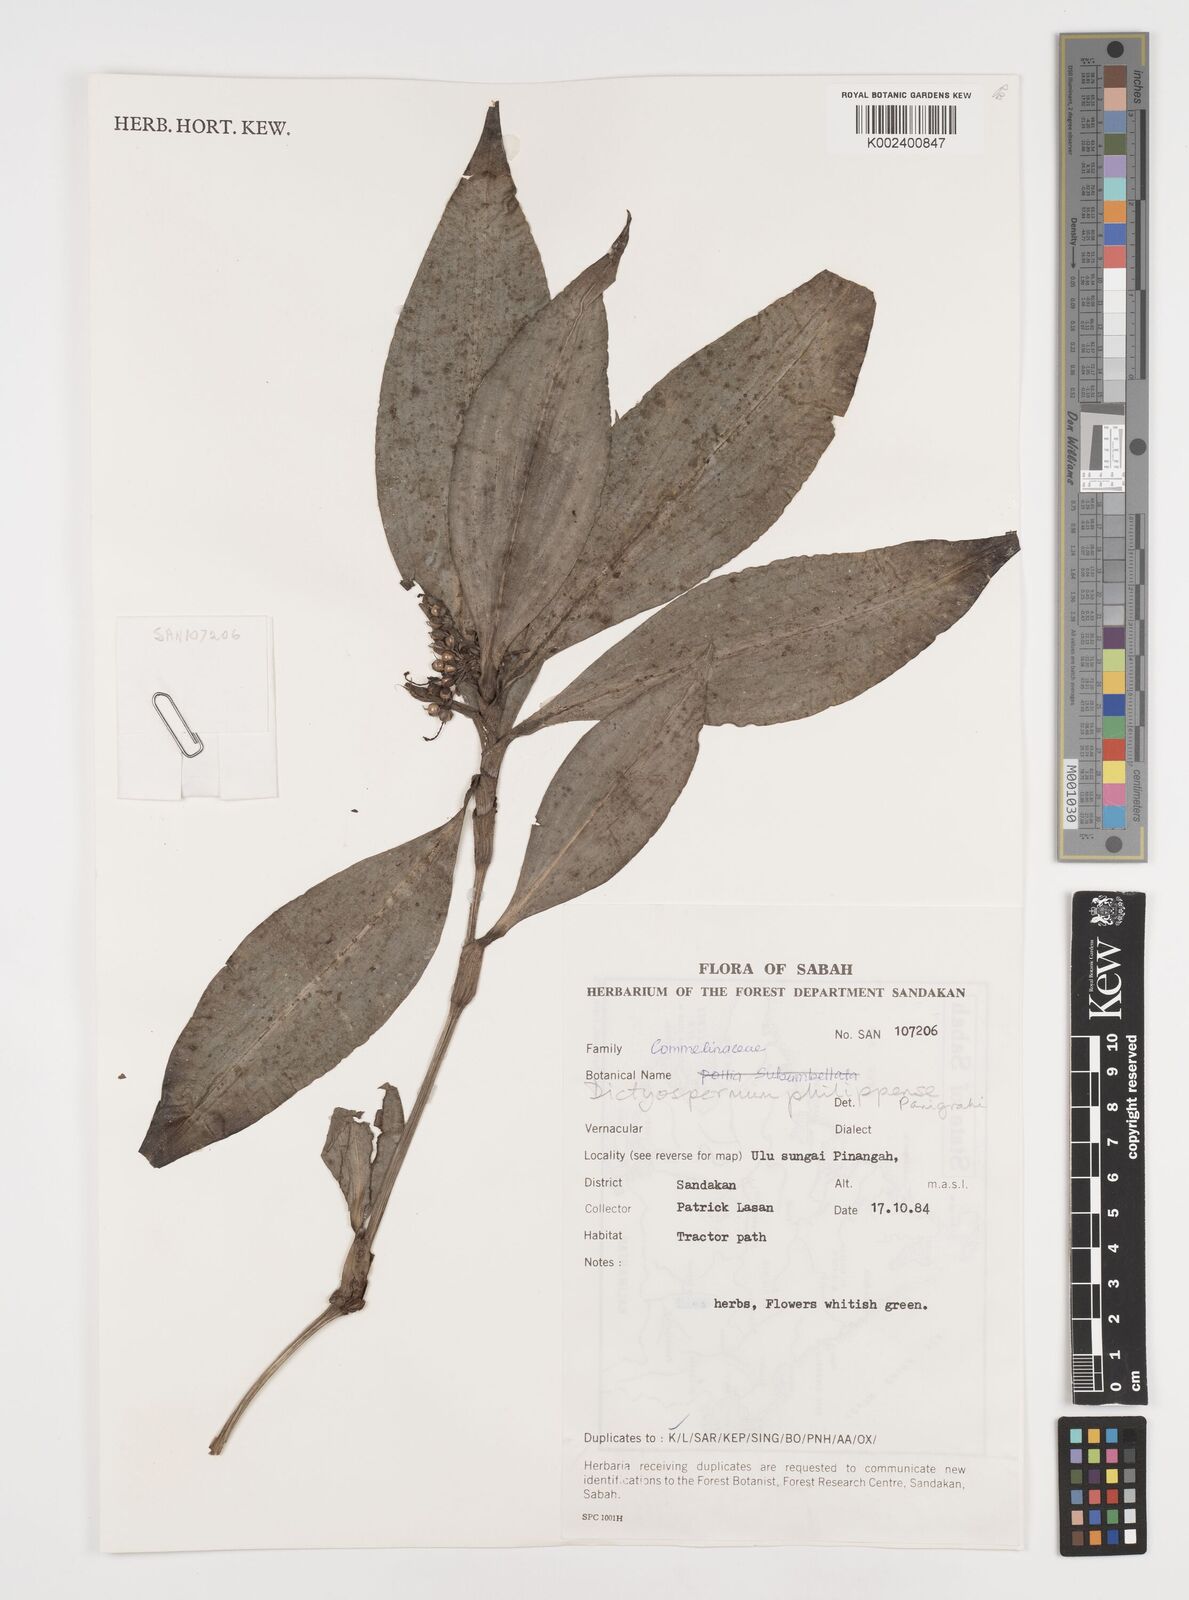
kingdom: Plantae
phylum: Tracheophyta
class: Liliopsida
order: Commelinales
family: Commelinaceae
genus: Tricarpelema
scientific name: Tricarpelema philippense
